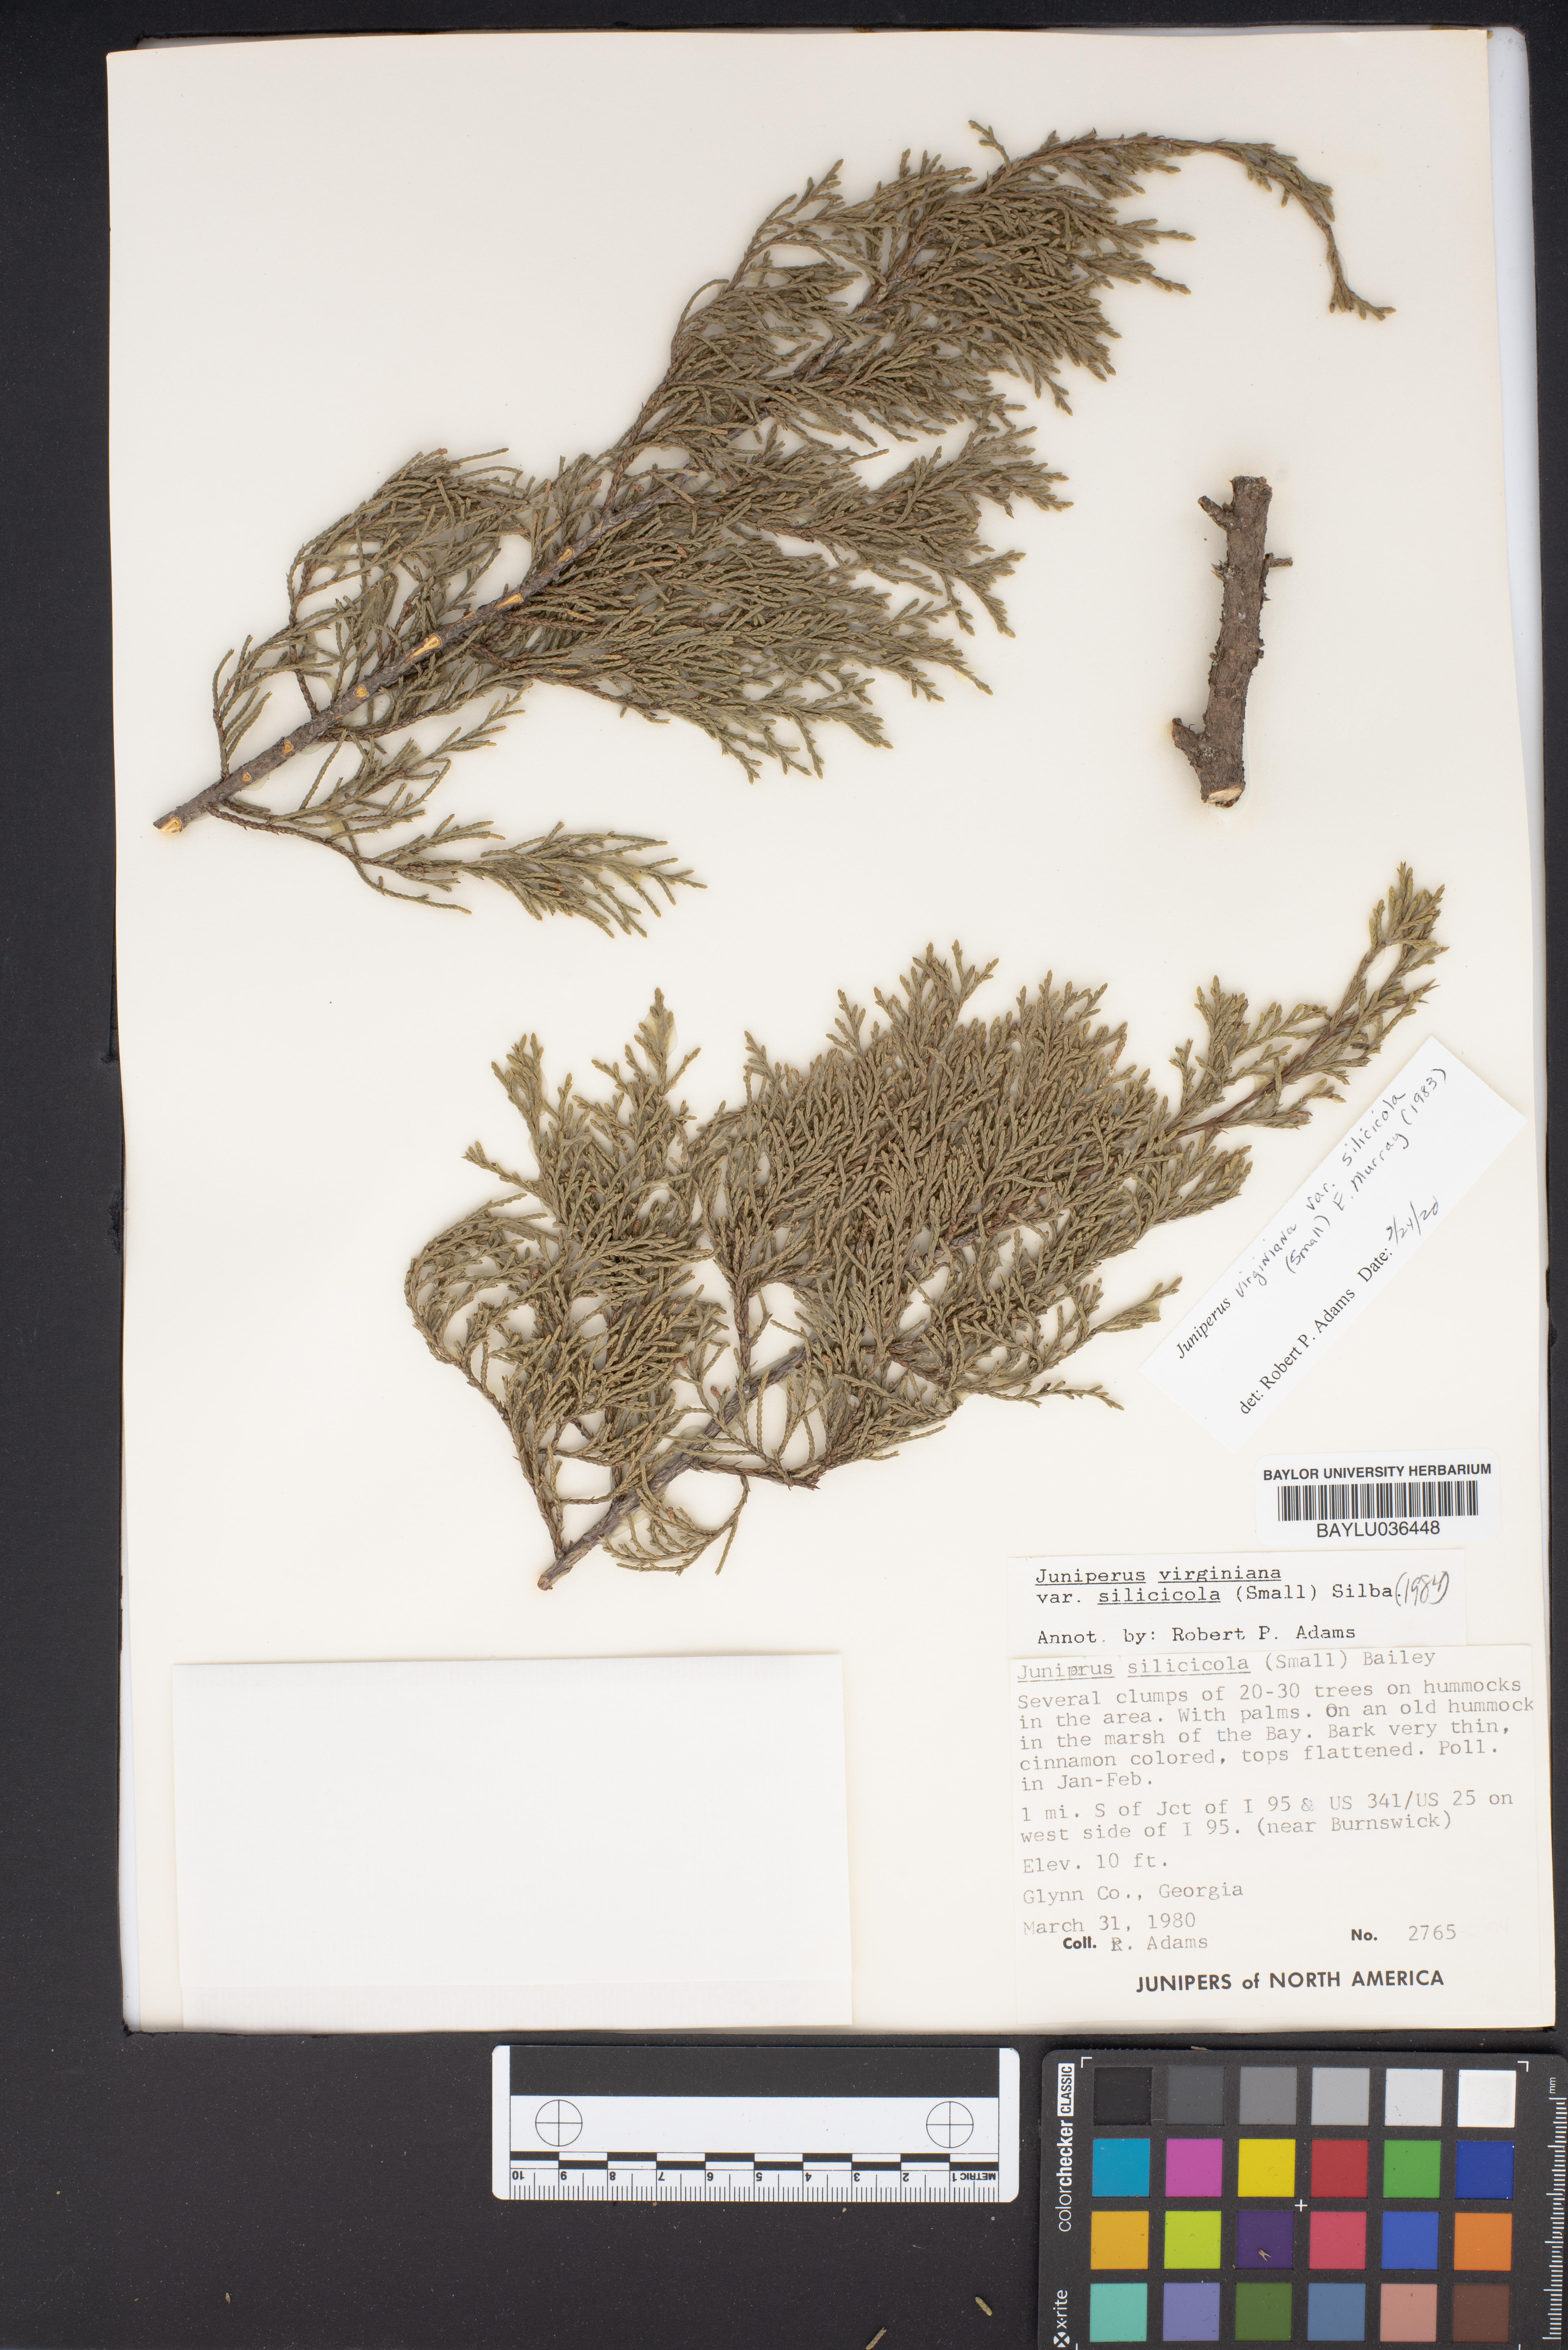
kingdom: Plantae
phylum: Tracheophyta
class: Pinopsida
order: Pinales
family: Cupressaceae
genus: Juniperus
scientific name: Juniperus virginiana
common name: Red juniper
